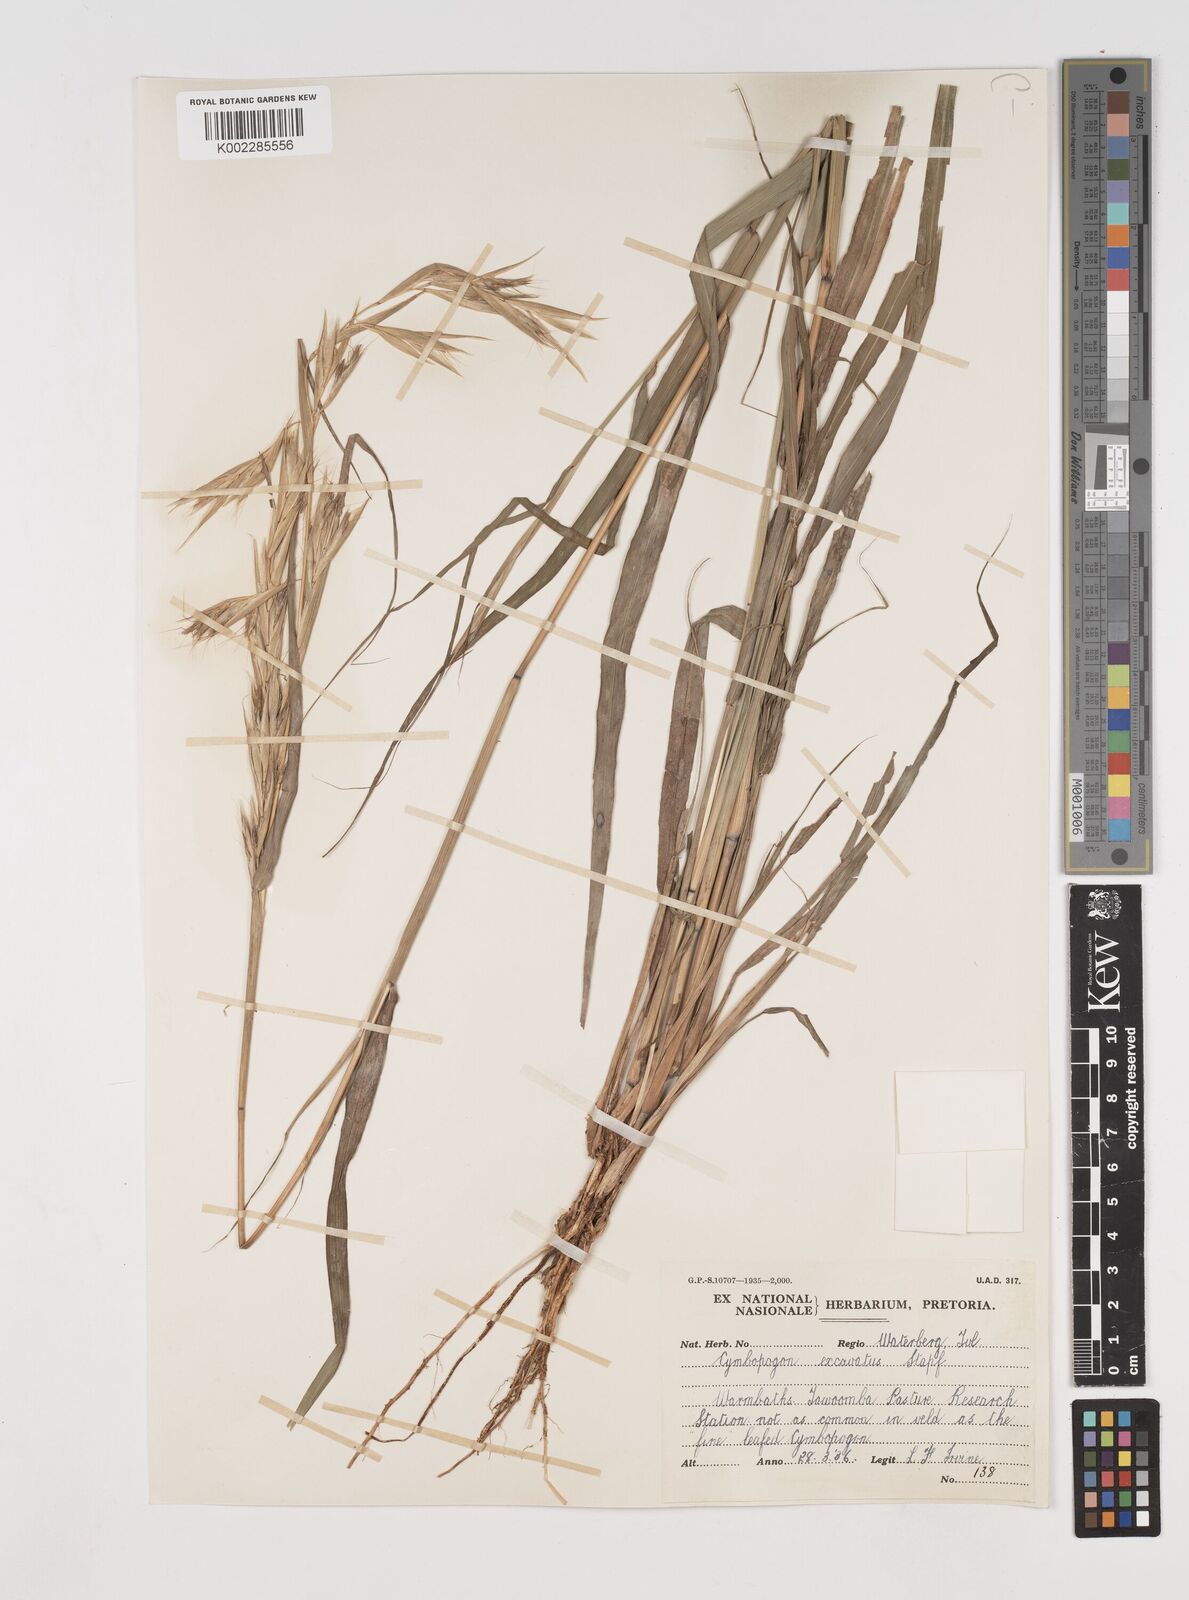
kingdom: Plantae
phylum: Tracheophyta
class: Liliopsida
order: Poales
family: Poaceae
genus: Cymbopogon
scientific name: Cymbopogon caesius
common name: Kachi grass
